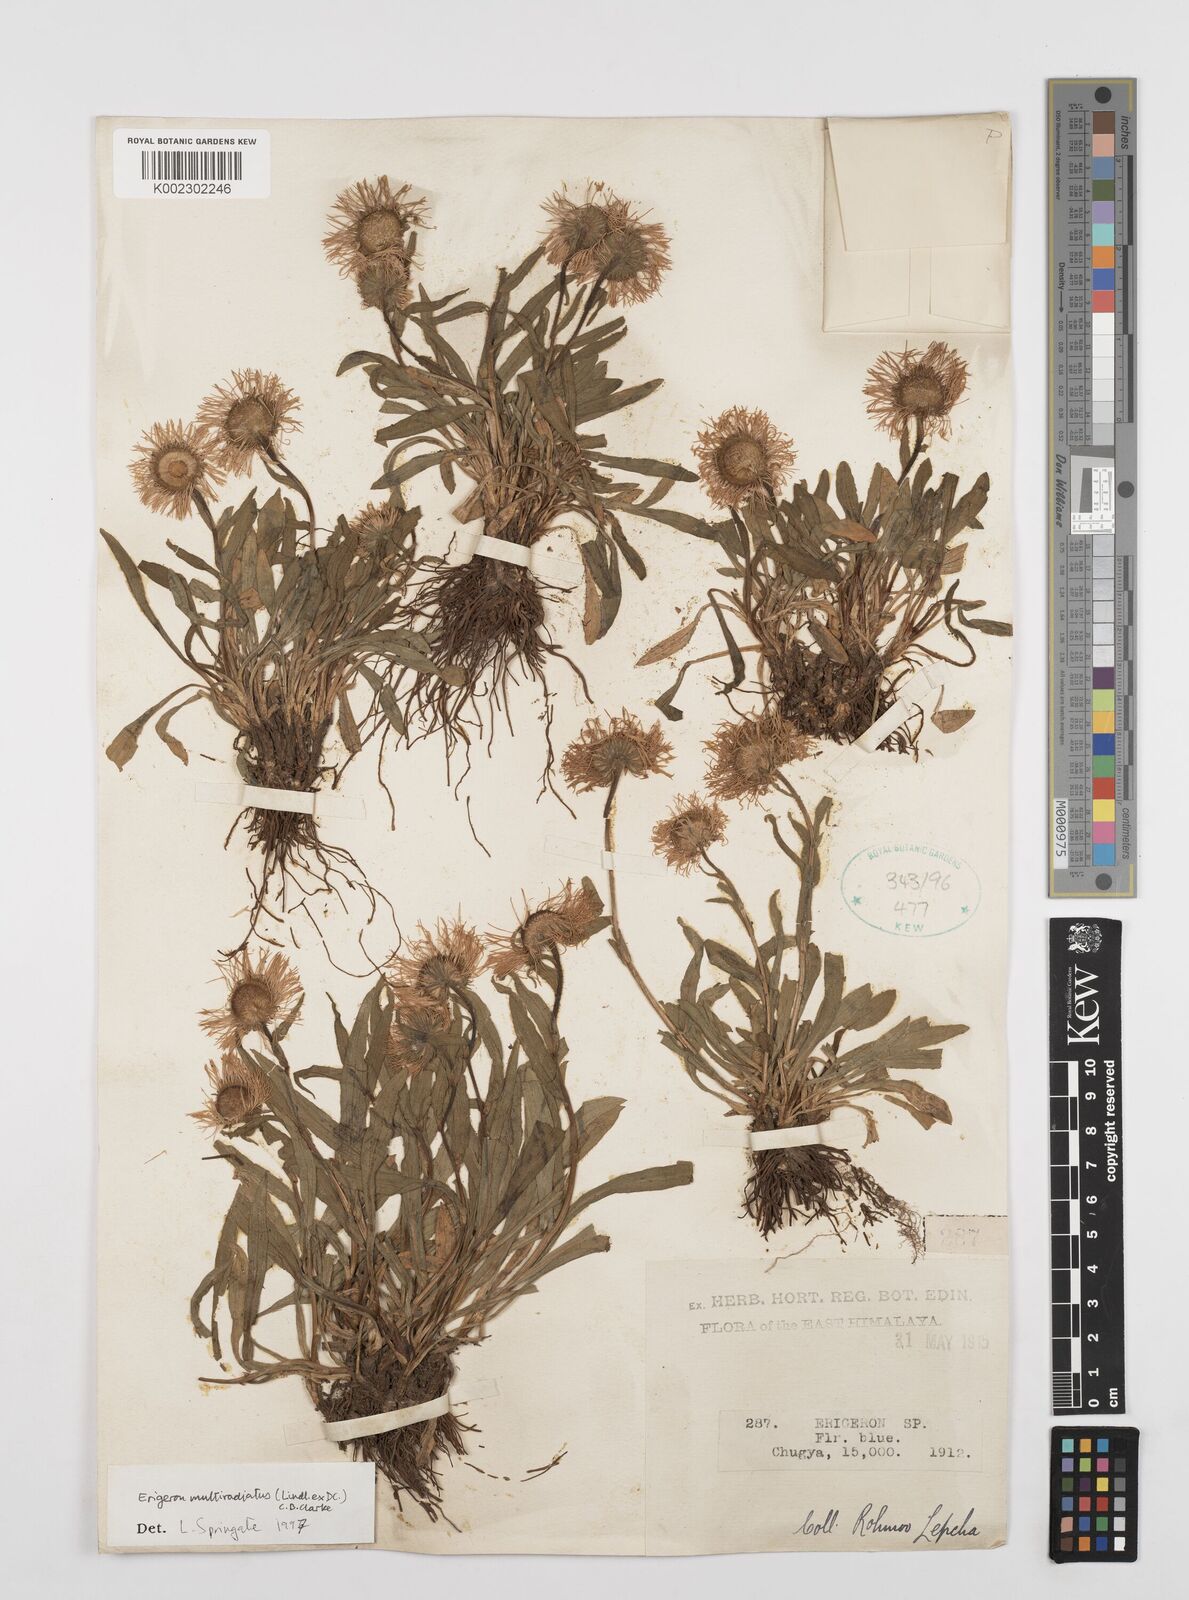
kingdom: Plantae
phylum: Tracheophyta
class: Magnoliopsida
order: Asterales
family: Asteraceae
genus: Erigeron
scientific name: Erigeron multiradiatus
